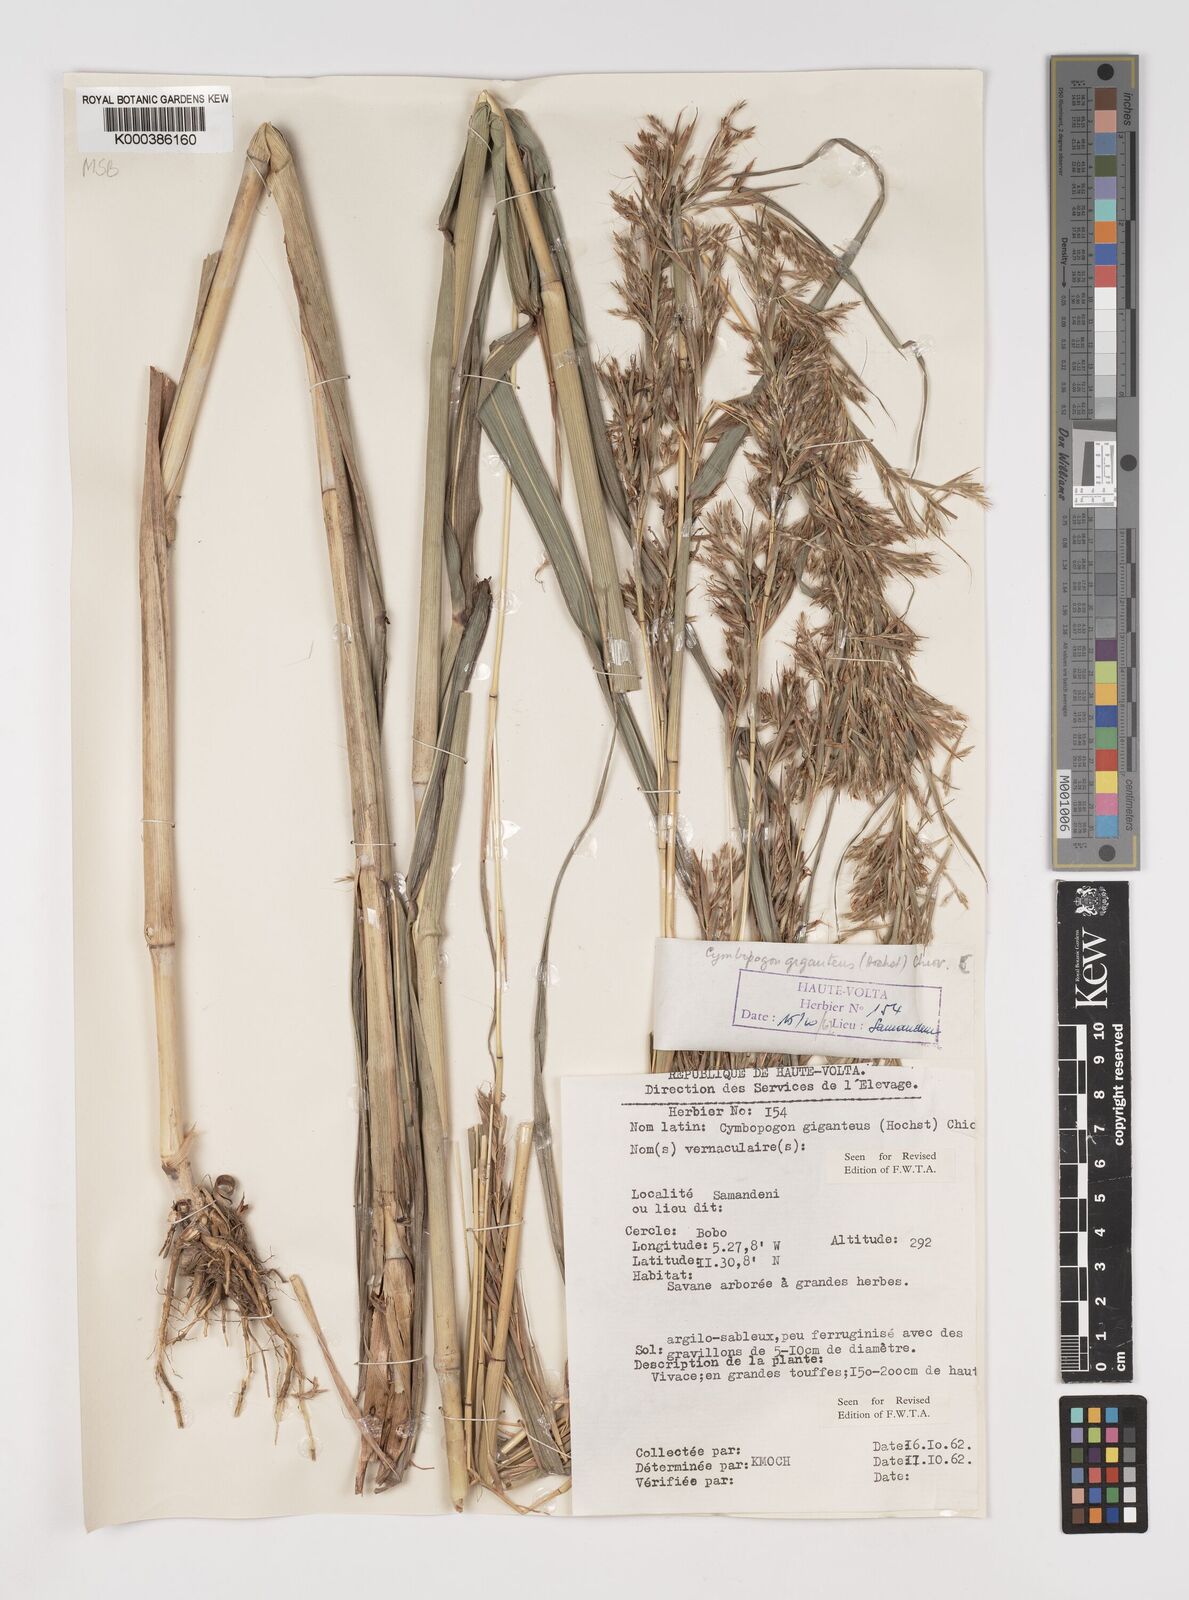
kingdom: Plantae
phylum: Tracheophyta
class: Liliopsida
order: Poales
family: Poaceae
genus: Cymbopogon
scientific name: Cymbopogon giganteus
